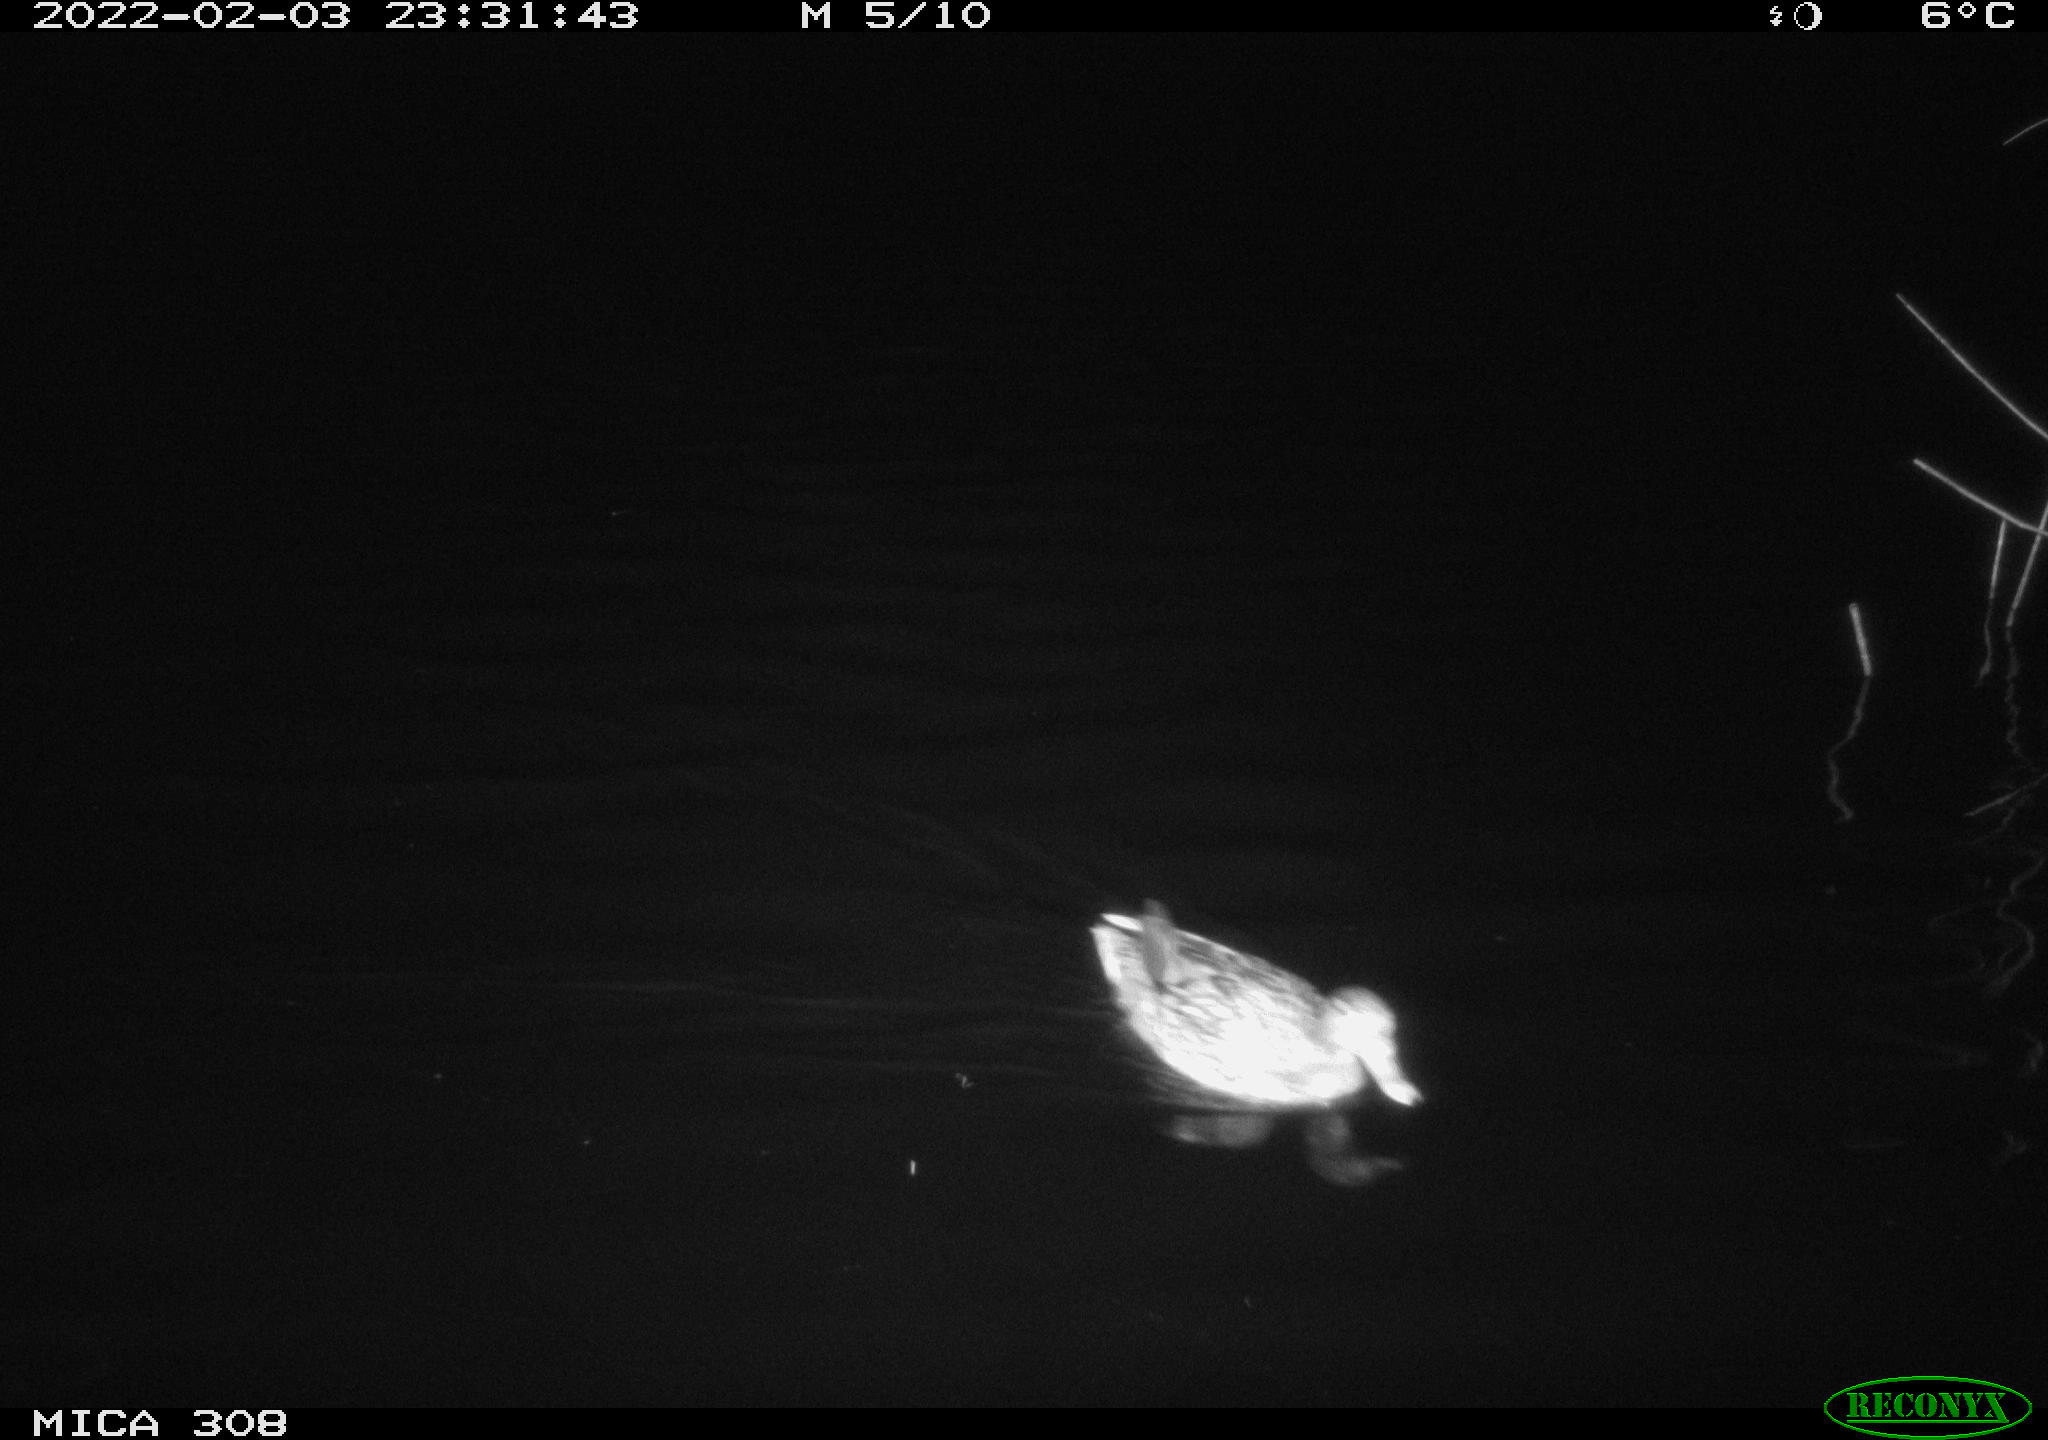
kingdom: Animalia
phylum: Chordata
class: Aves
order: Anseriformes
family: Anatidae
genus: Anas
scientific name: Anas platyrhynchos
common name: Mallard
